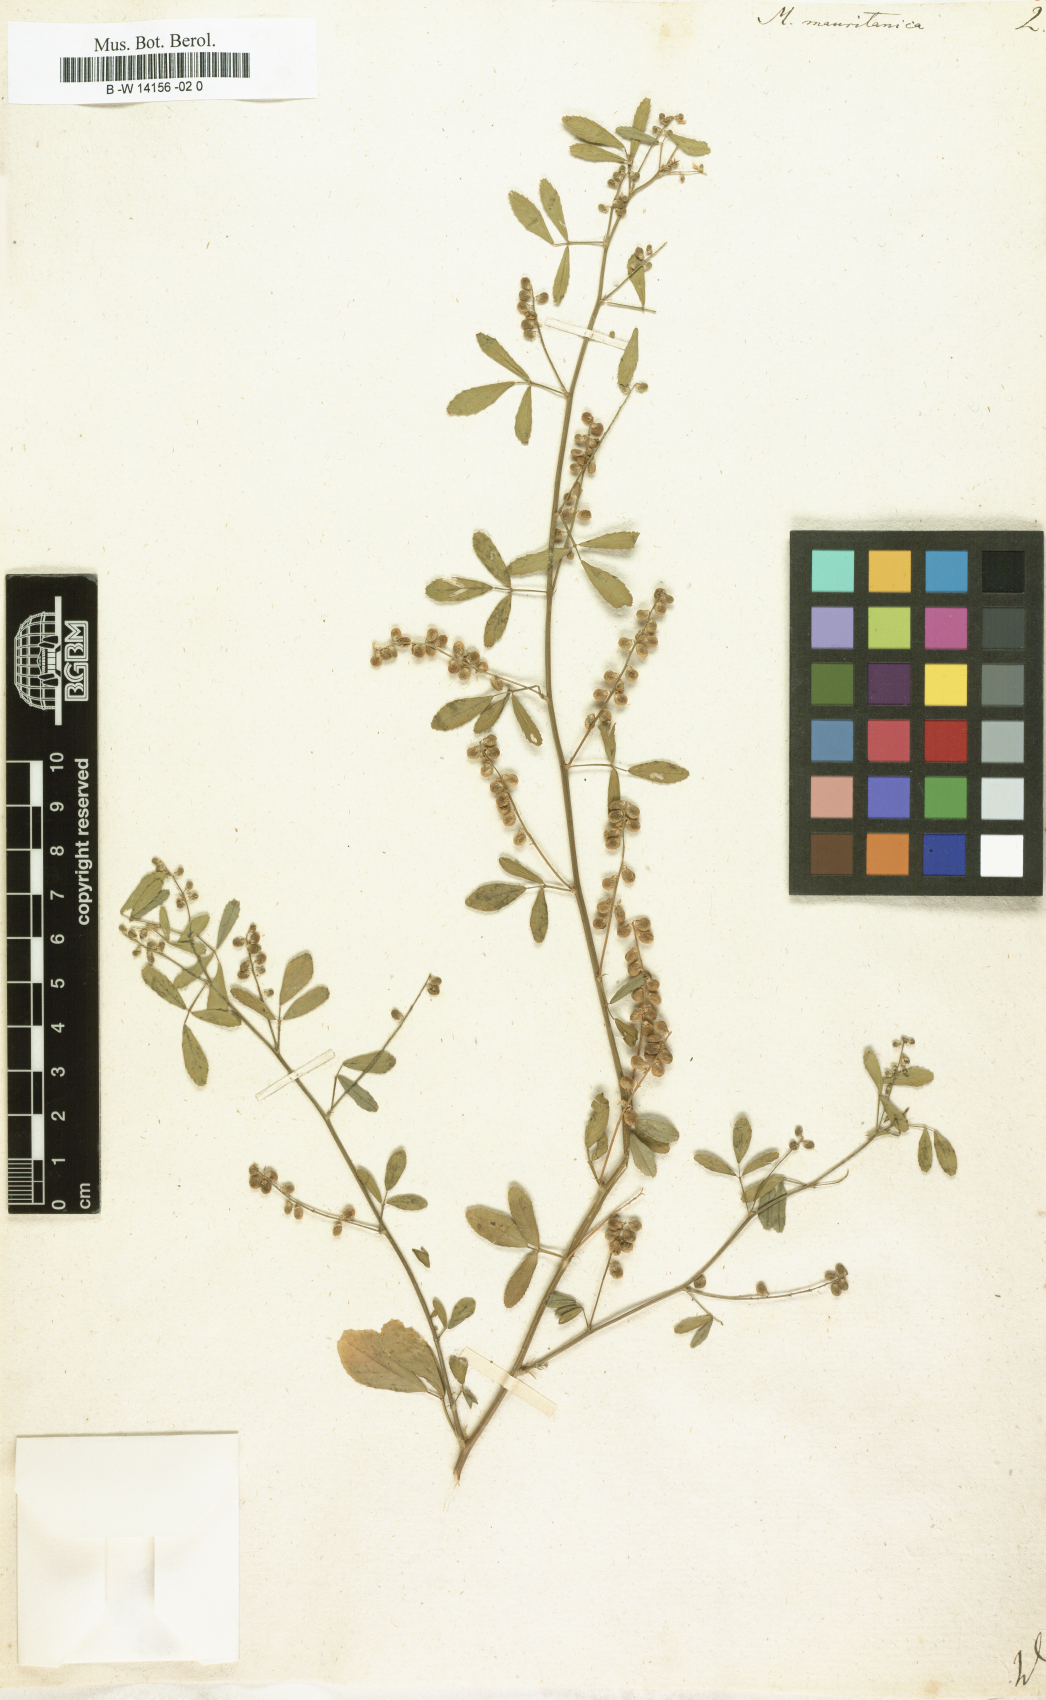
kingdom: Plantae
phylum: Tracheophyta
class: Magnoliopsida
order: Fabales
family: Fabaceae
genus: Melilotus
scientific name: Melilotus officinalis
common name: Sweetclover
